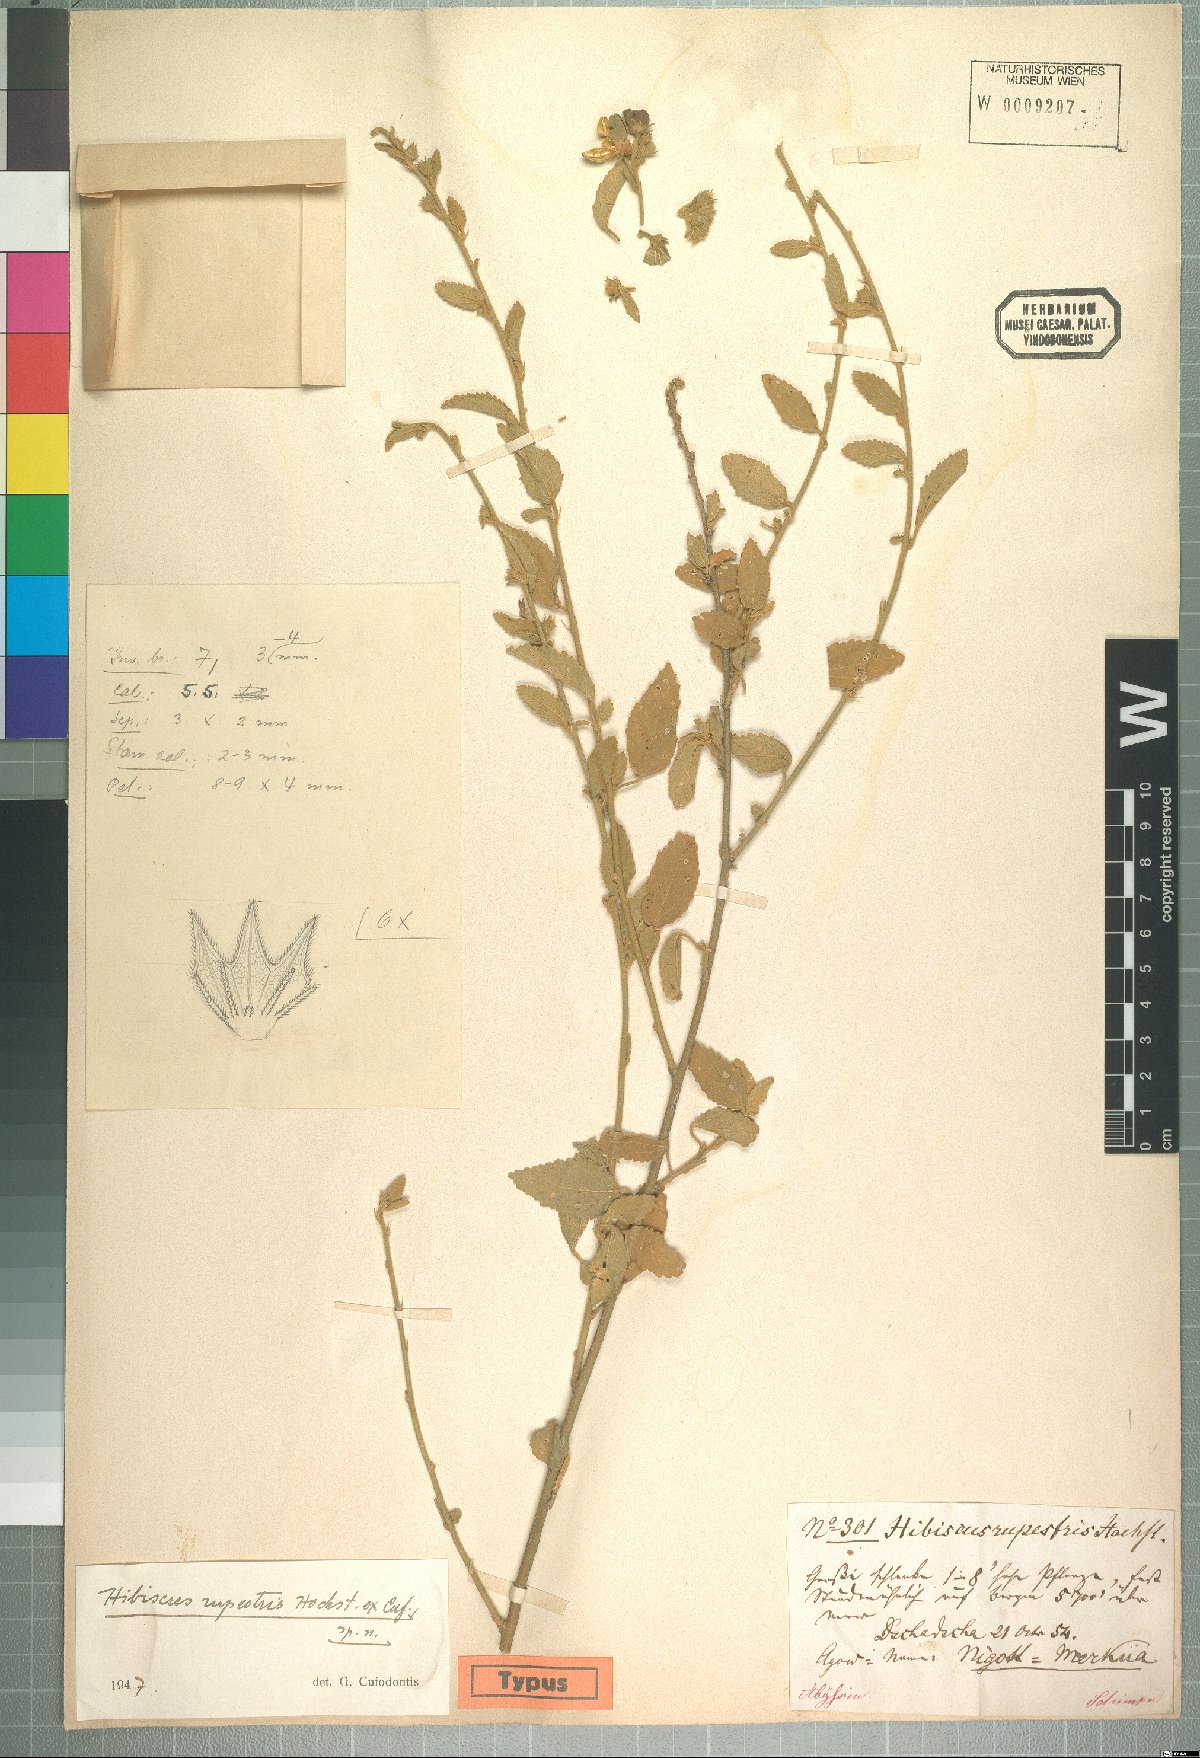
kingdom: Plantae
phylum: Tracheophyta
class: Magnoliopsida
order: Malvales
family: Malvaceae
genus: Hibiscus
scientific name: Hibiscus eriospermus
